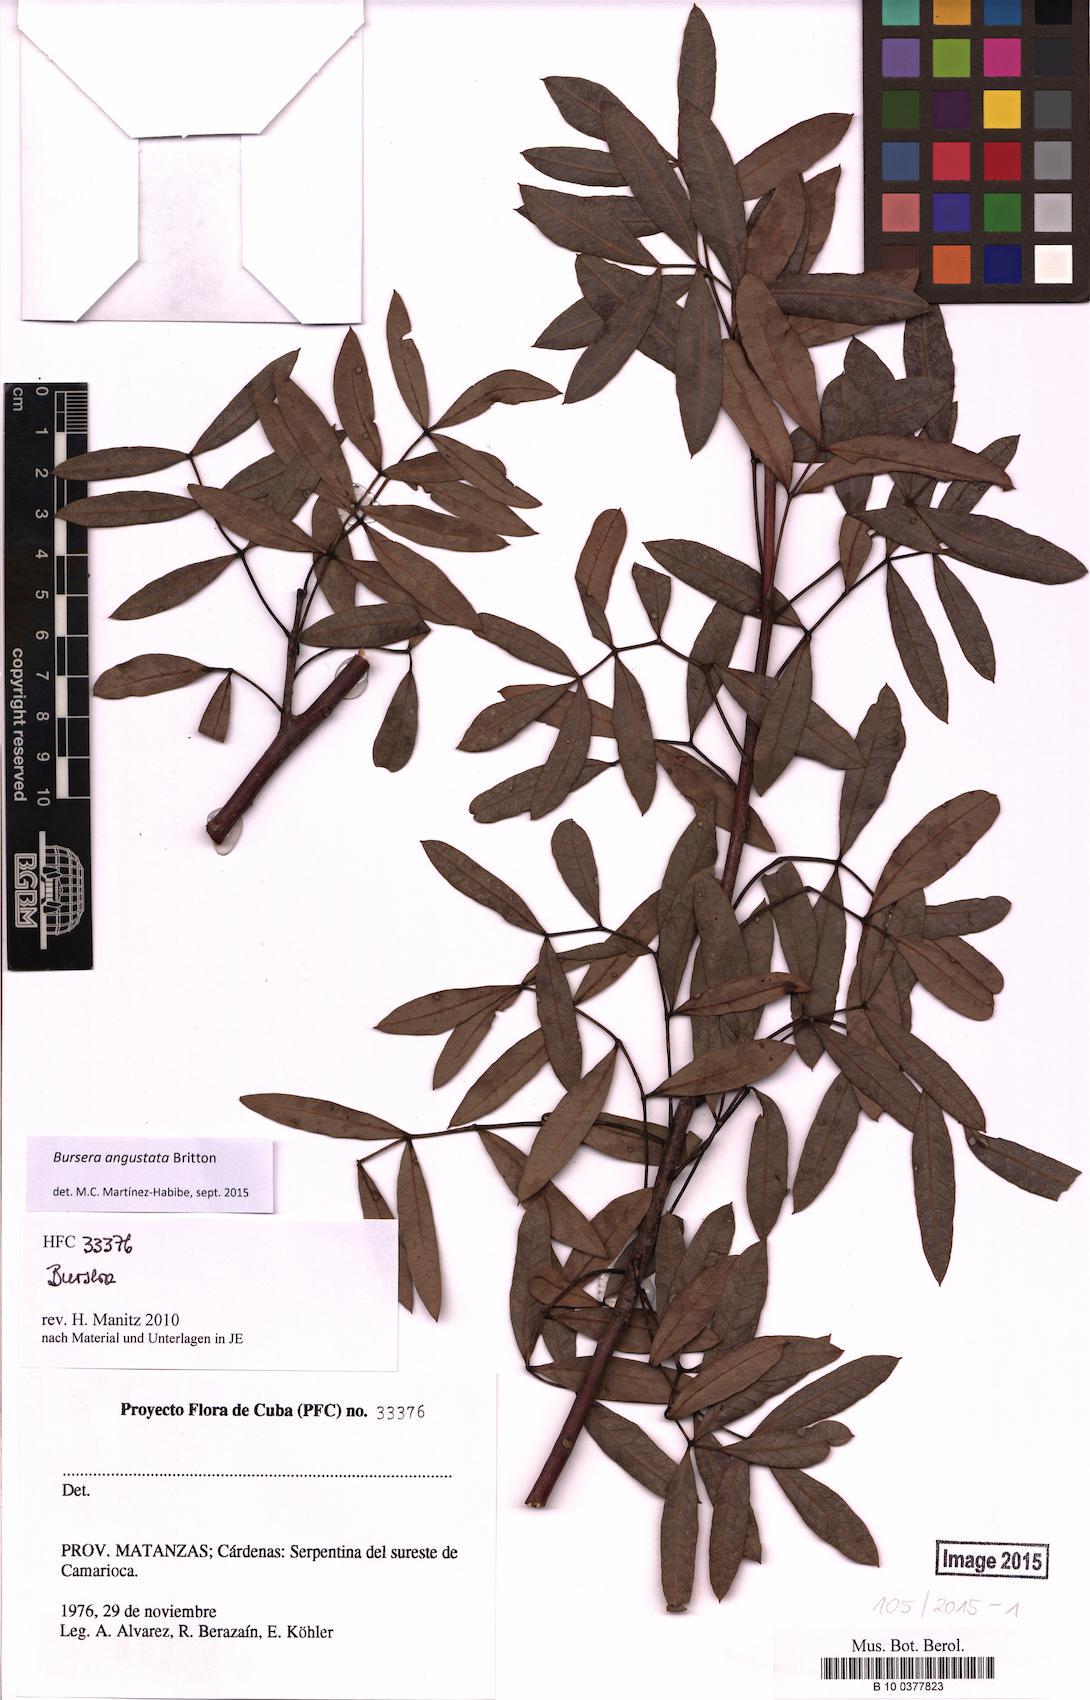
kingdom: Plantae
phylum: Tracheophyta
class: Magnoliopsida
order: Sapindales
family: Burseraceae
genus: Bursera
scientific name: Bursera angustata
